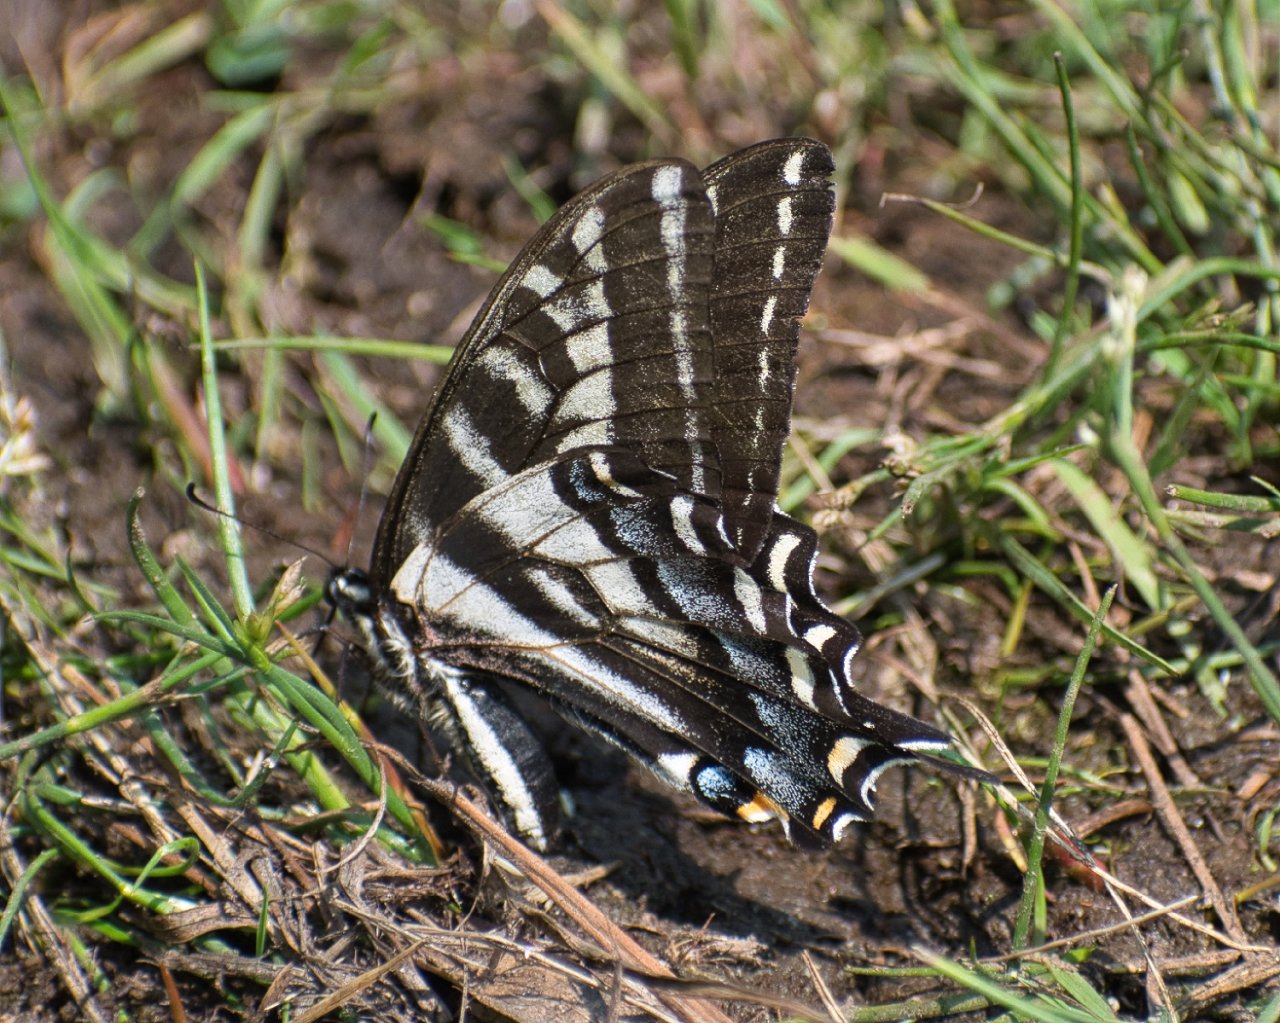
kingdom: Animalia
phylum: Arthropoda
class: Insecta
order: Lepidoptera
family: Papilionidae
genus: Pterourus
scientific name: Pterourus eurymedon
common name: Pale Swallowtail
